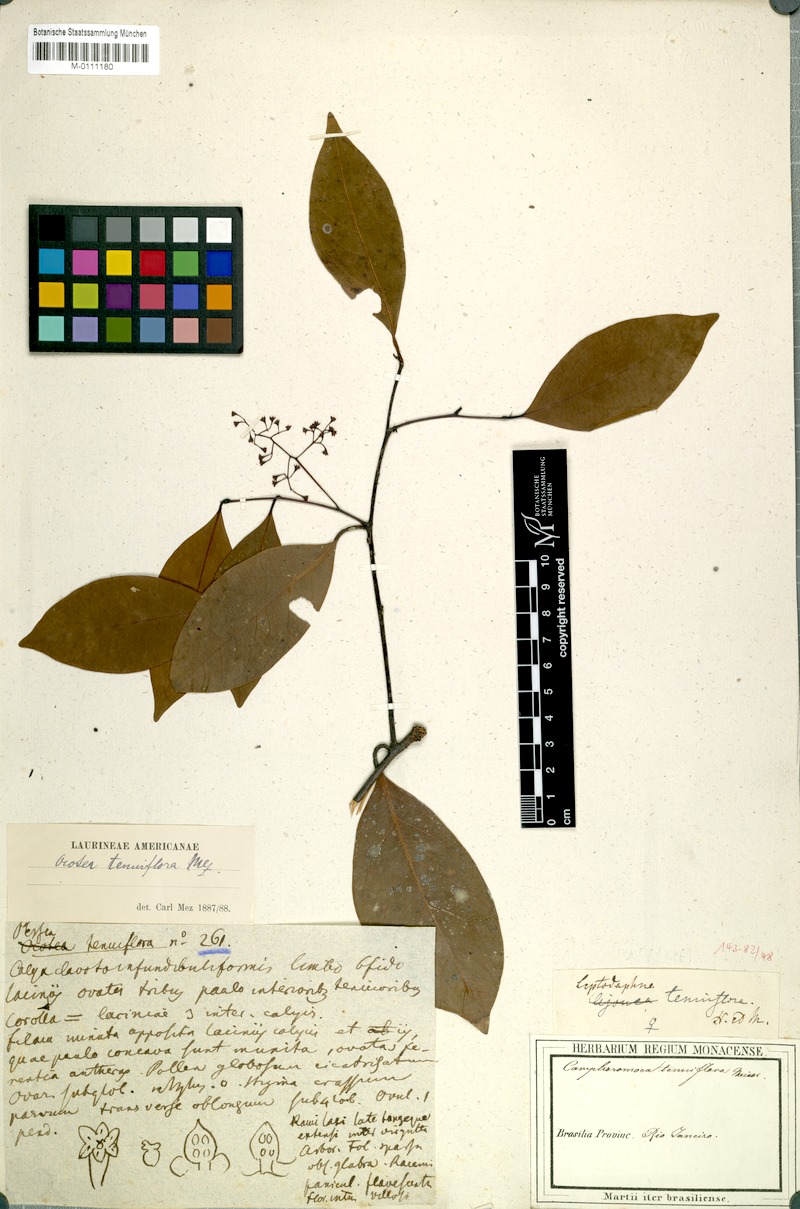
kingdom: Plantae
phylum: Tracheophyta
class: Magnoliopsida
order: Laurales
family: Lauraceae
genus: Ocotea
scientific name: Ocotea tenuiflora
